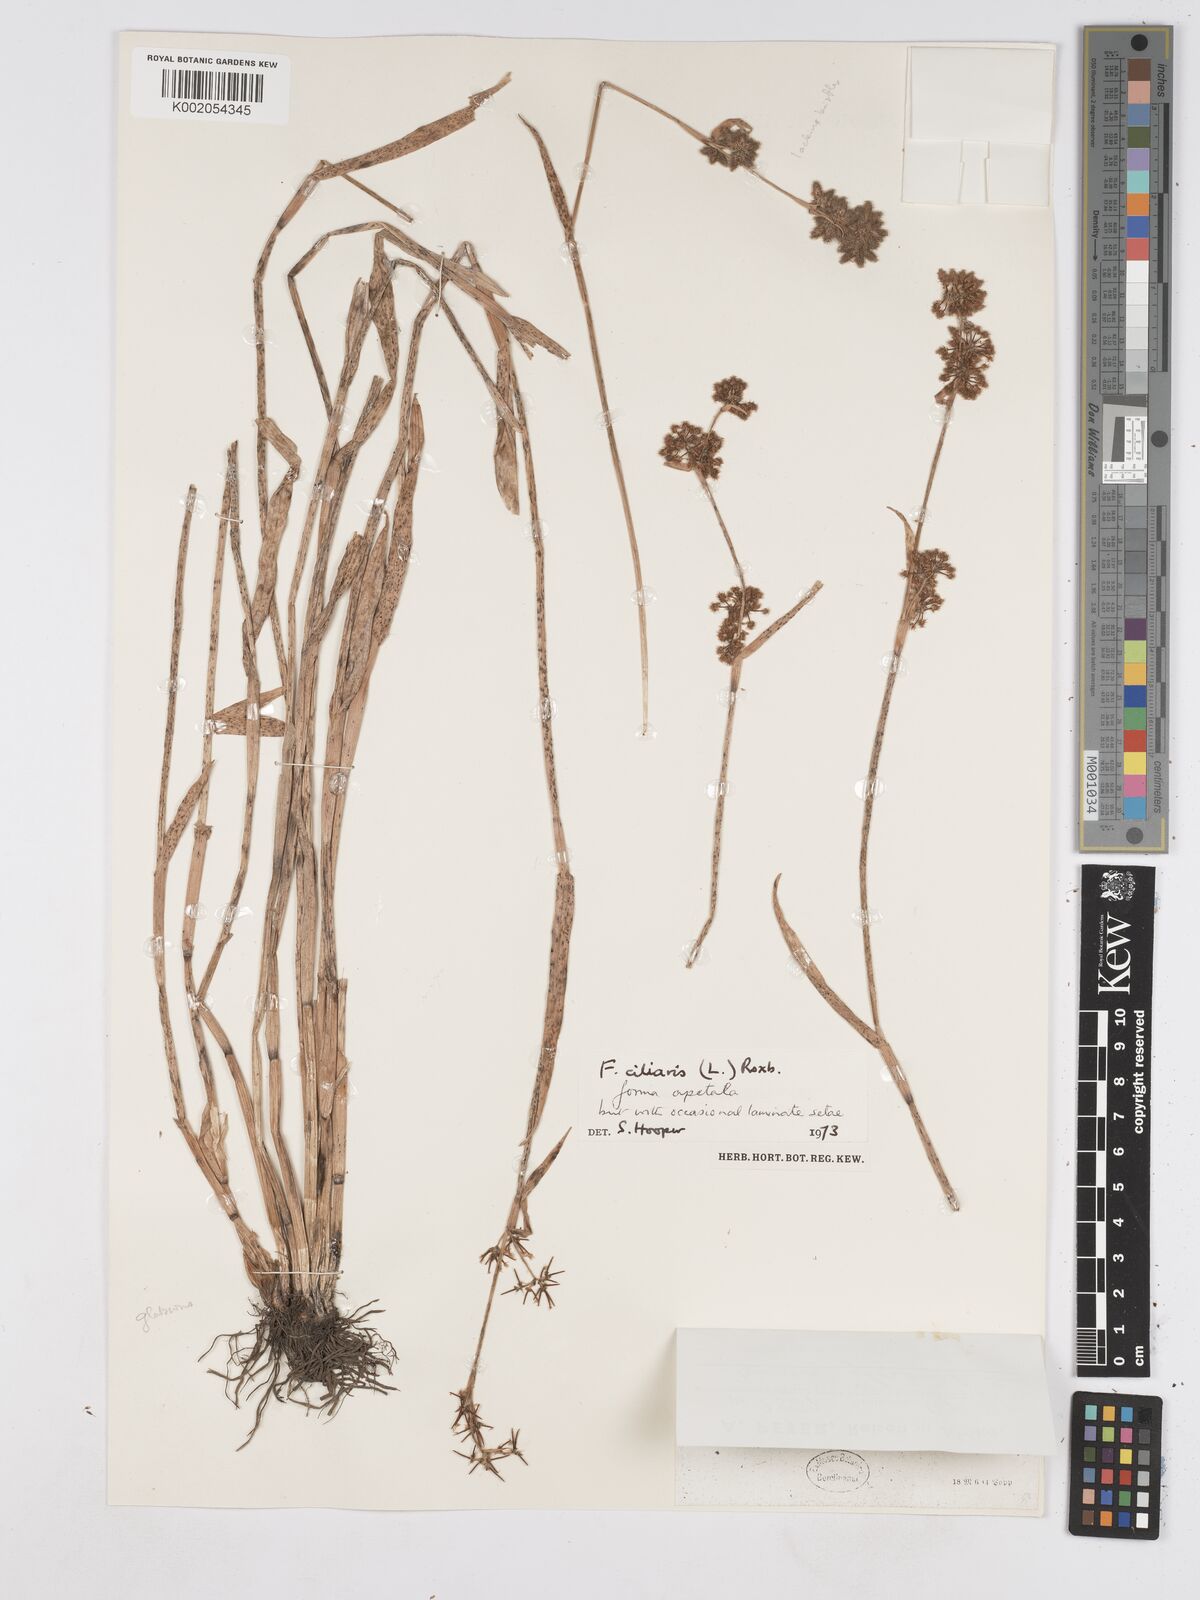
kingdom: Plantae
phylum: Tracheophyta
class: Liliopsida
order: Poales
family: Cyperaceae
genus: Fuirena
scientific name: Fuirena ciliaris
